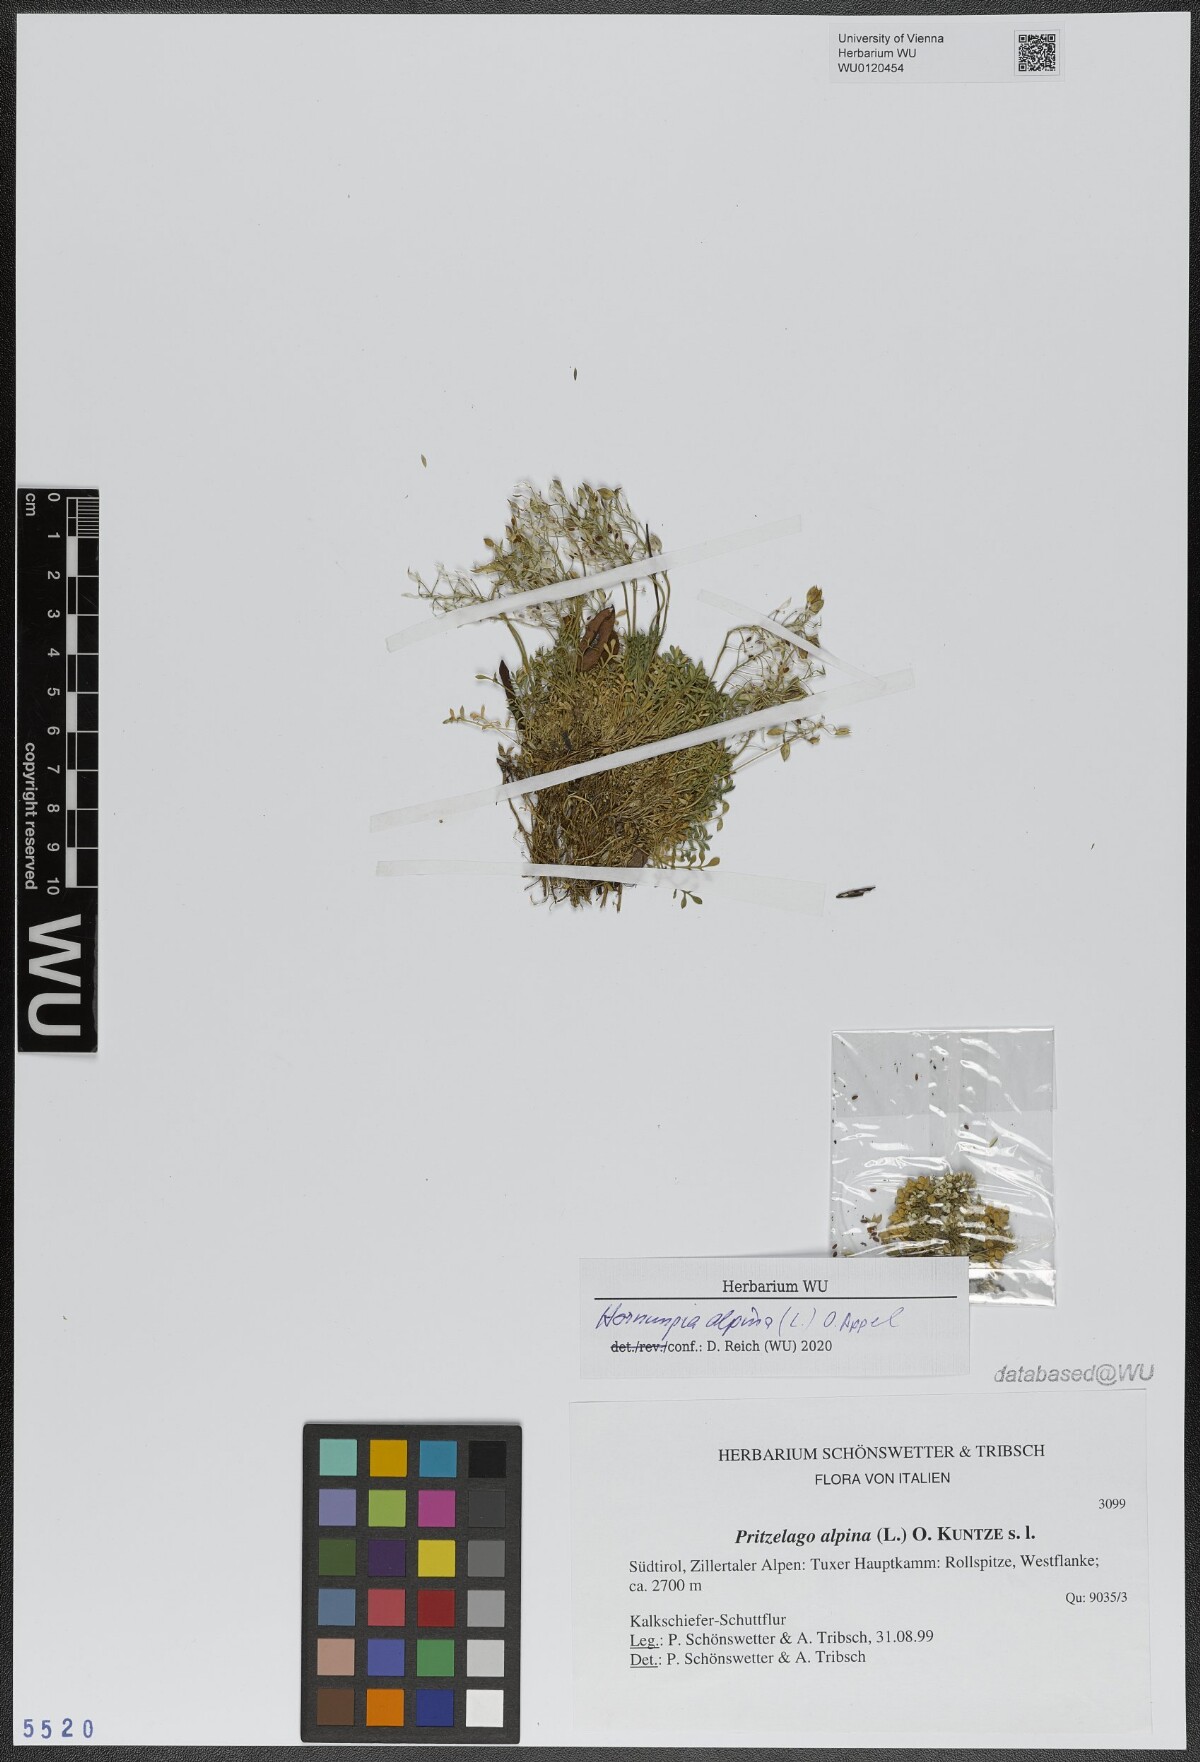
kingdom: Plantae
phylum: Tracheophyta
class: Magnoliopsida
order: Brassicales
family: Brassicaceae
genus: Hornungia
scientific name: Hornungia alpina
